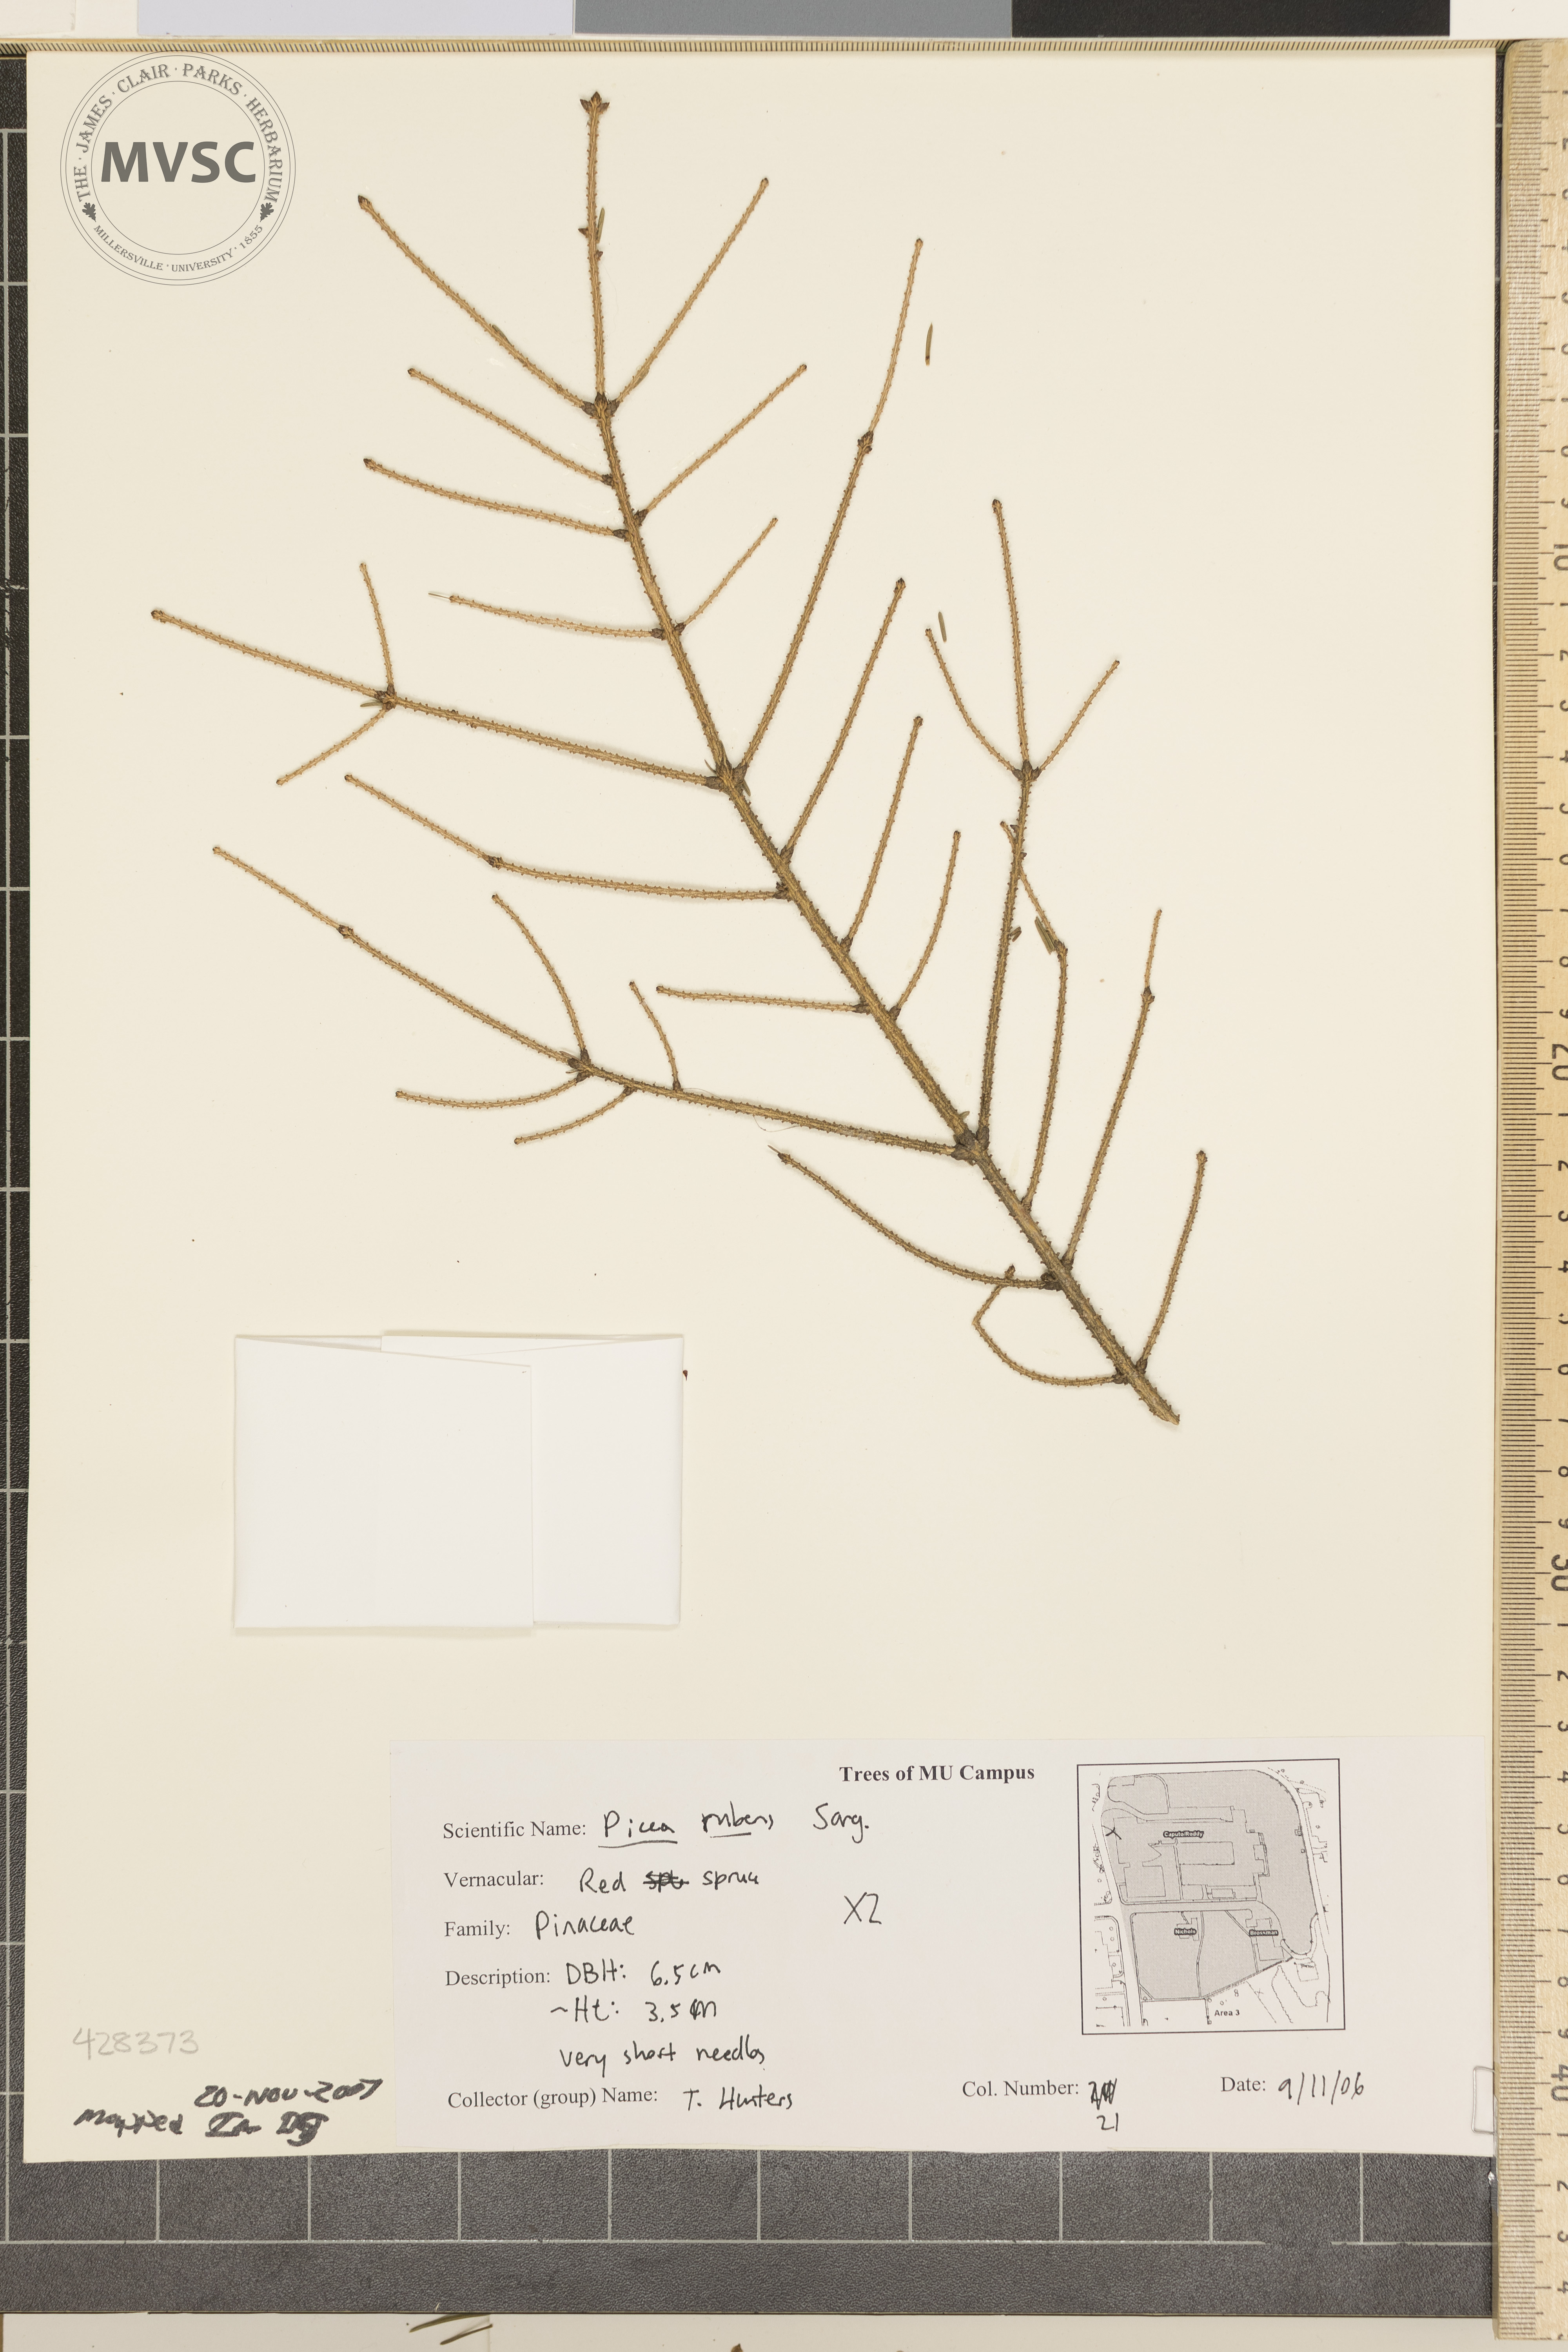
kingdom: Plantae
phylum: Tracheophyta
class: Pinopsida
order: Pinales
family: Pinaceae
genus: Picea
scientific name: Picea rubens
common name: Red Spruce
